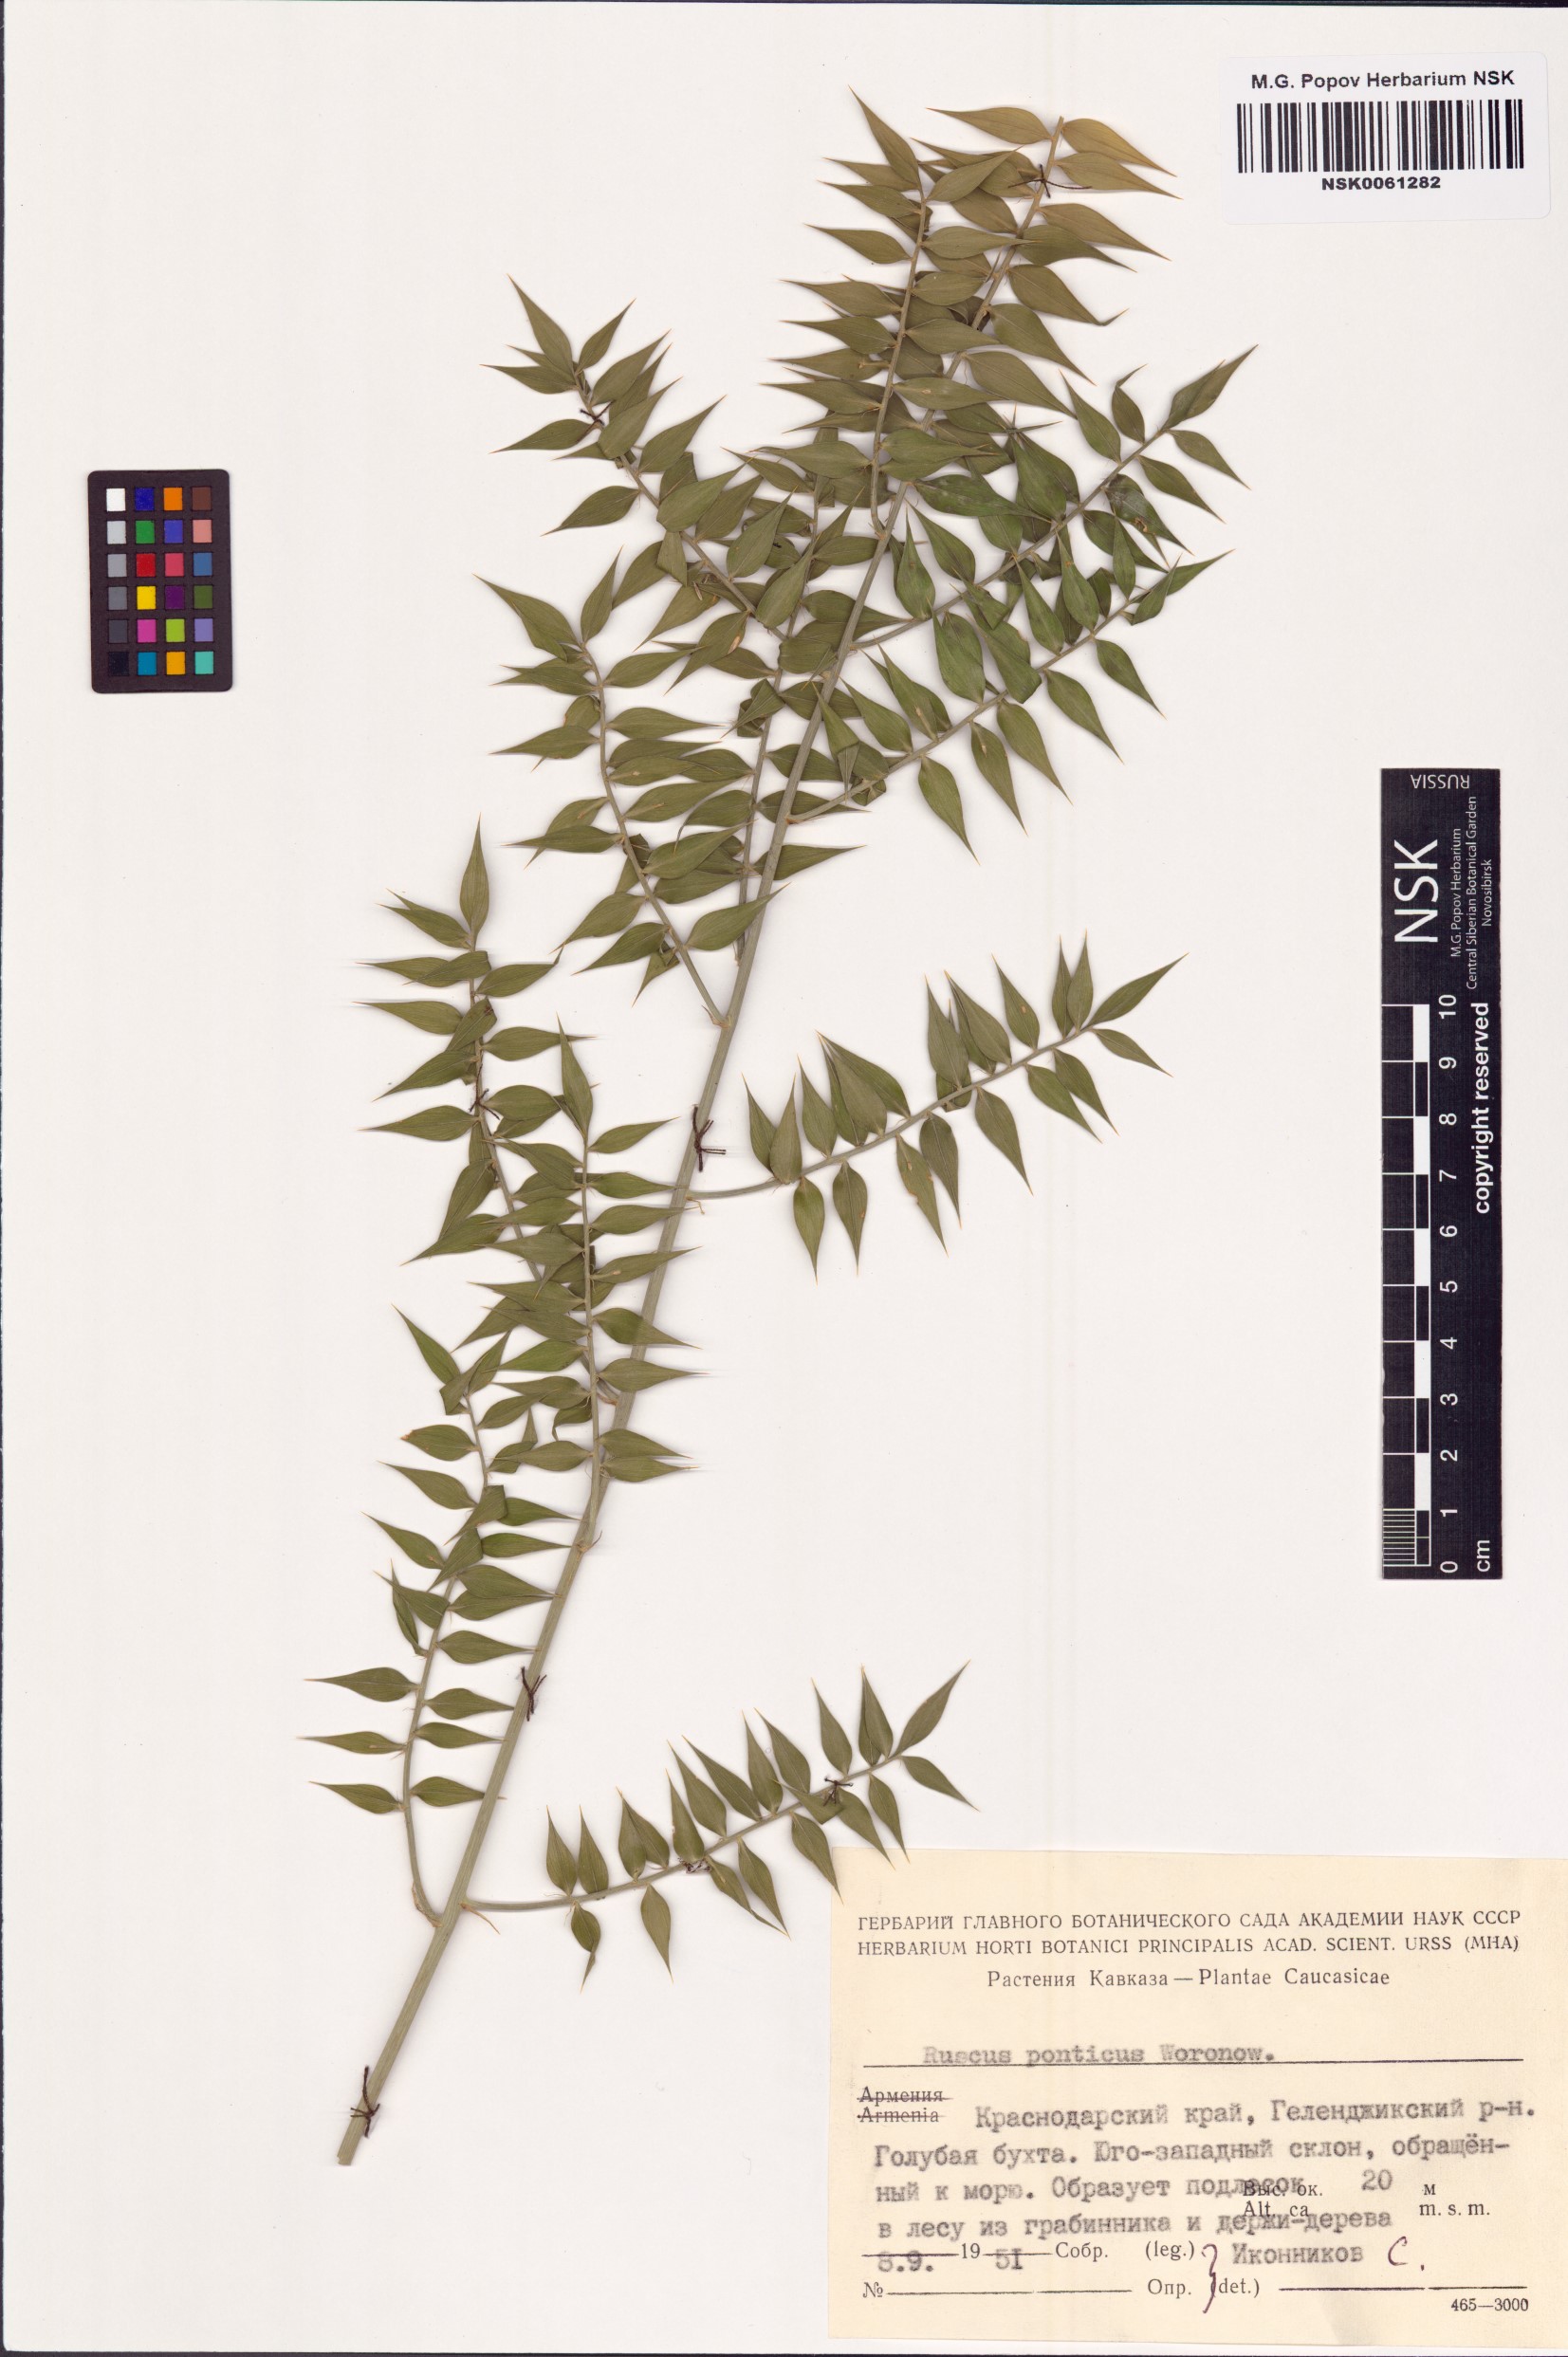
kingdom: Plantae
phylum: Tracheophyta
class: Liliopsida
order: Asparagales
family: Asparagaceae
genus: Ruscus
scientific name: Ruscus aculeatus
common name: Butcher's-broom
